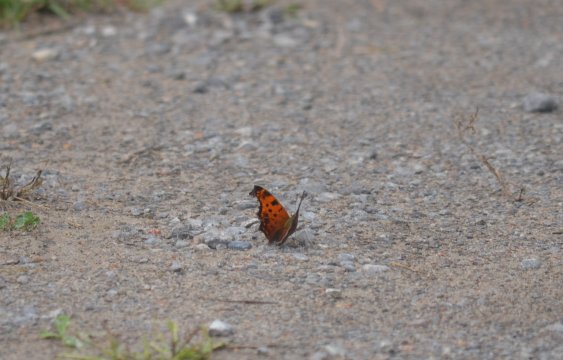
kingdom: Animalia
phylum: Arthropoda
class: Insecta
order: Lepidoptera
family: Nymphalidae
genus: Polygonia
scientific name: Polygonia comma
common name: Eastern Comma
